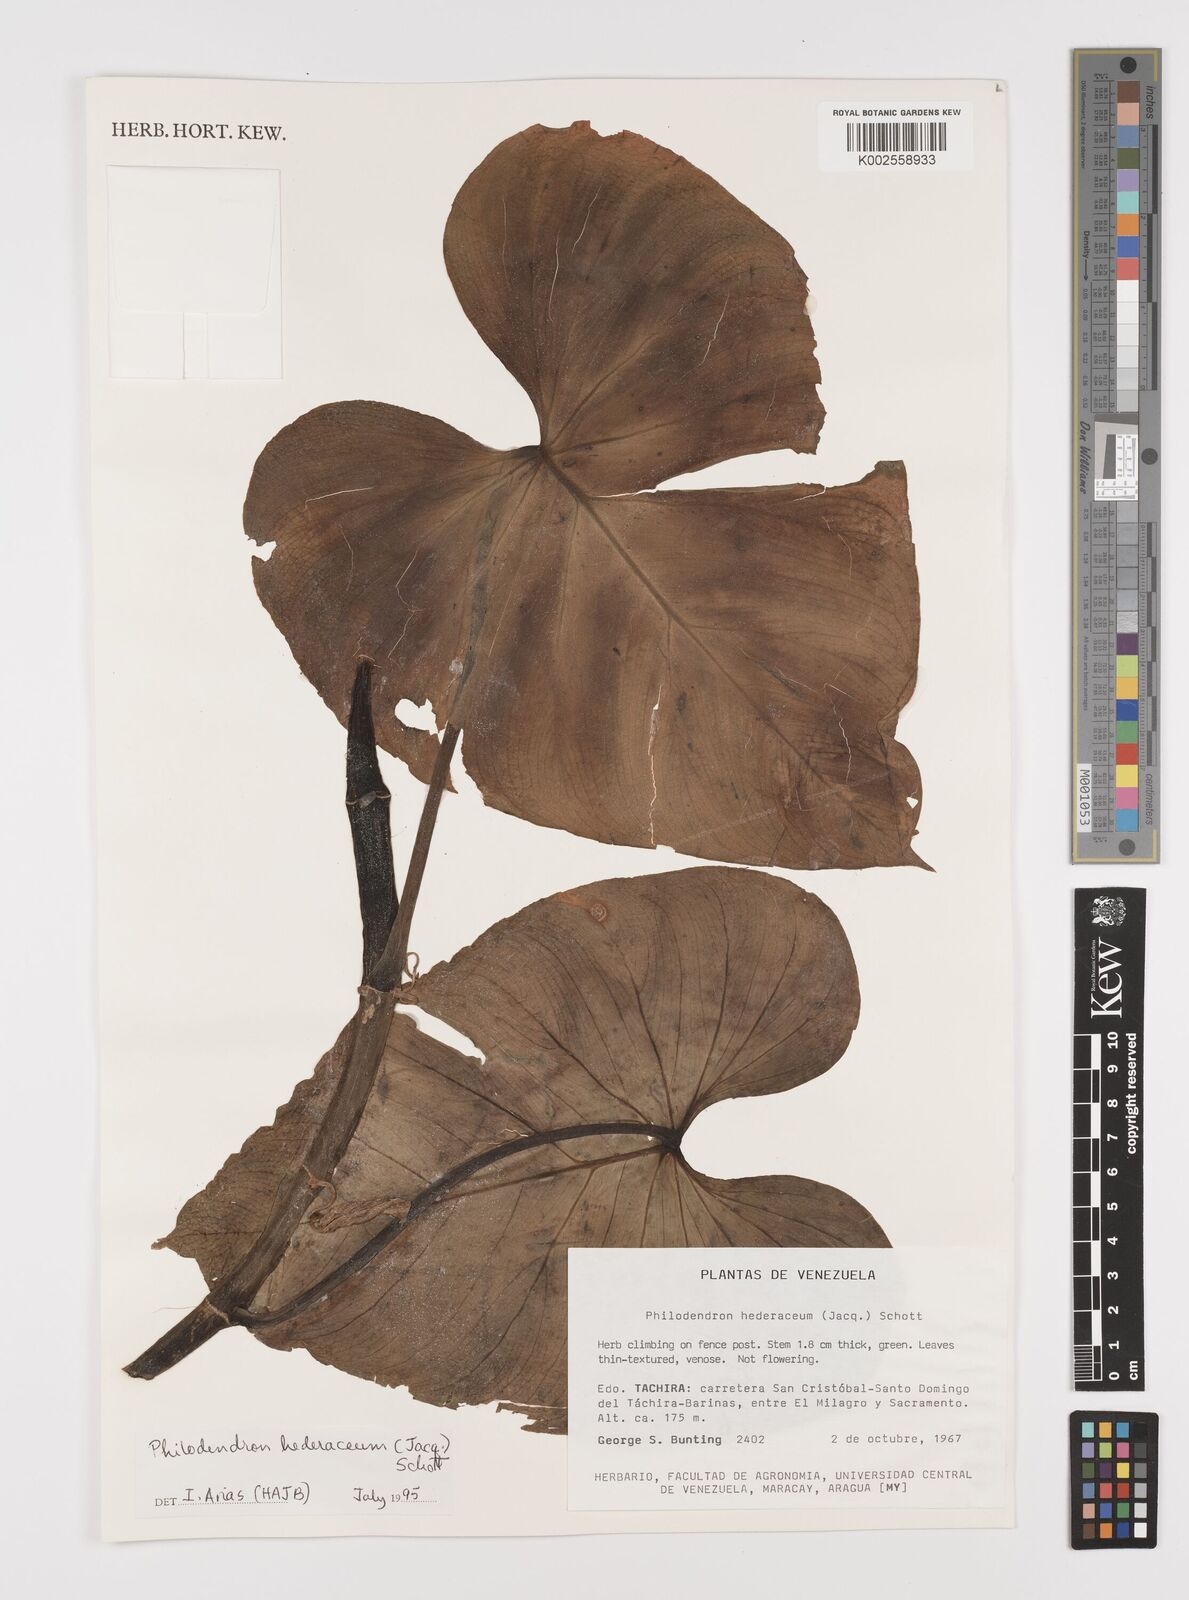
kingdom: Plantae
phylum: Tracheophyta
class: Liliopsida
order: Alismatales
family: Araceae
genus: Philodendron
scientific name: Philodendron hederaceum
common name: Vilevine
